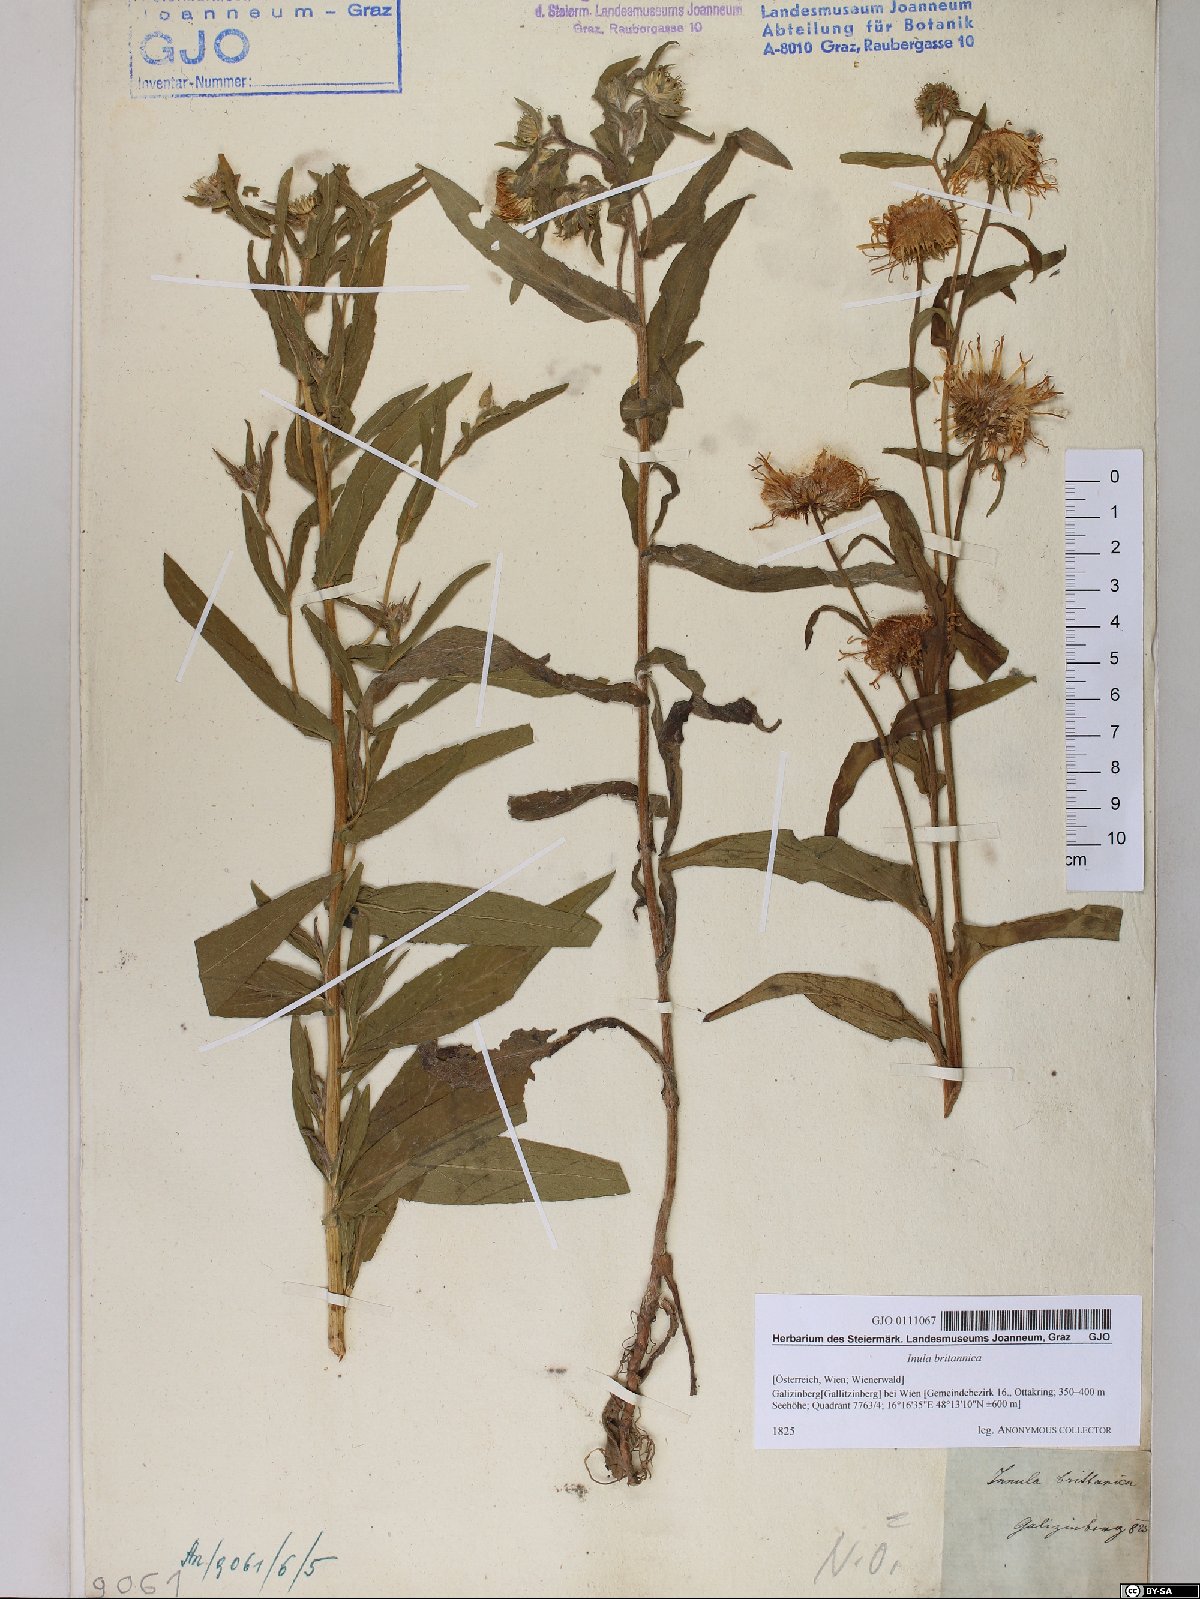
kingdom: Plantae
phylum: Tracheophyta
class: Magnoliopsida
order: Asterales
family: Asteraceae
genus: Pentanema
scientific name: Pentanema britannicum
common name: British elecampane
